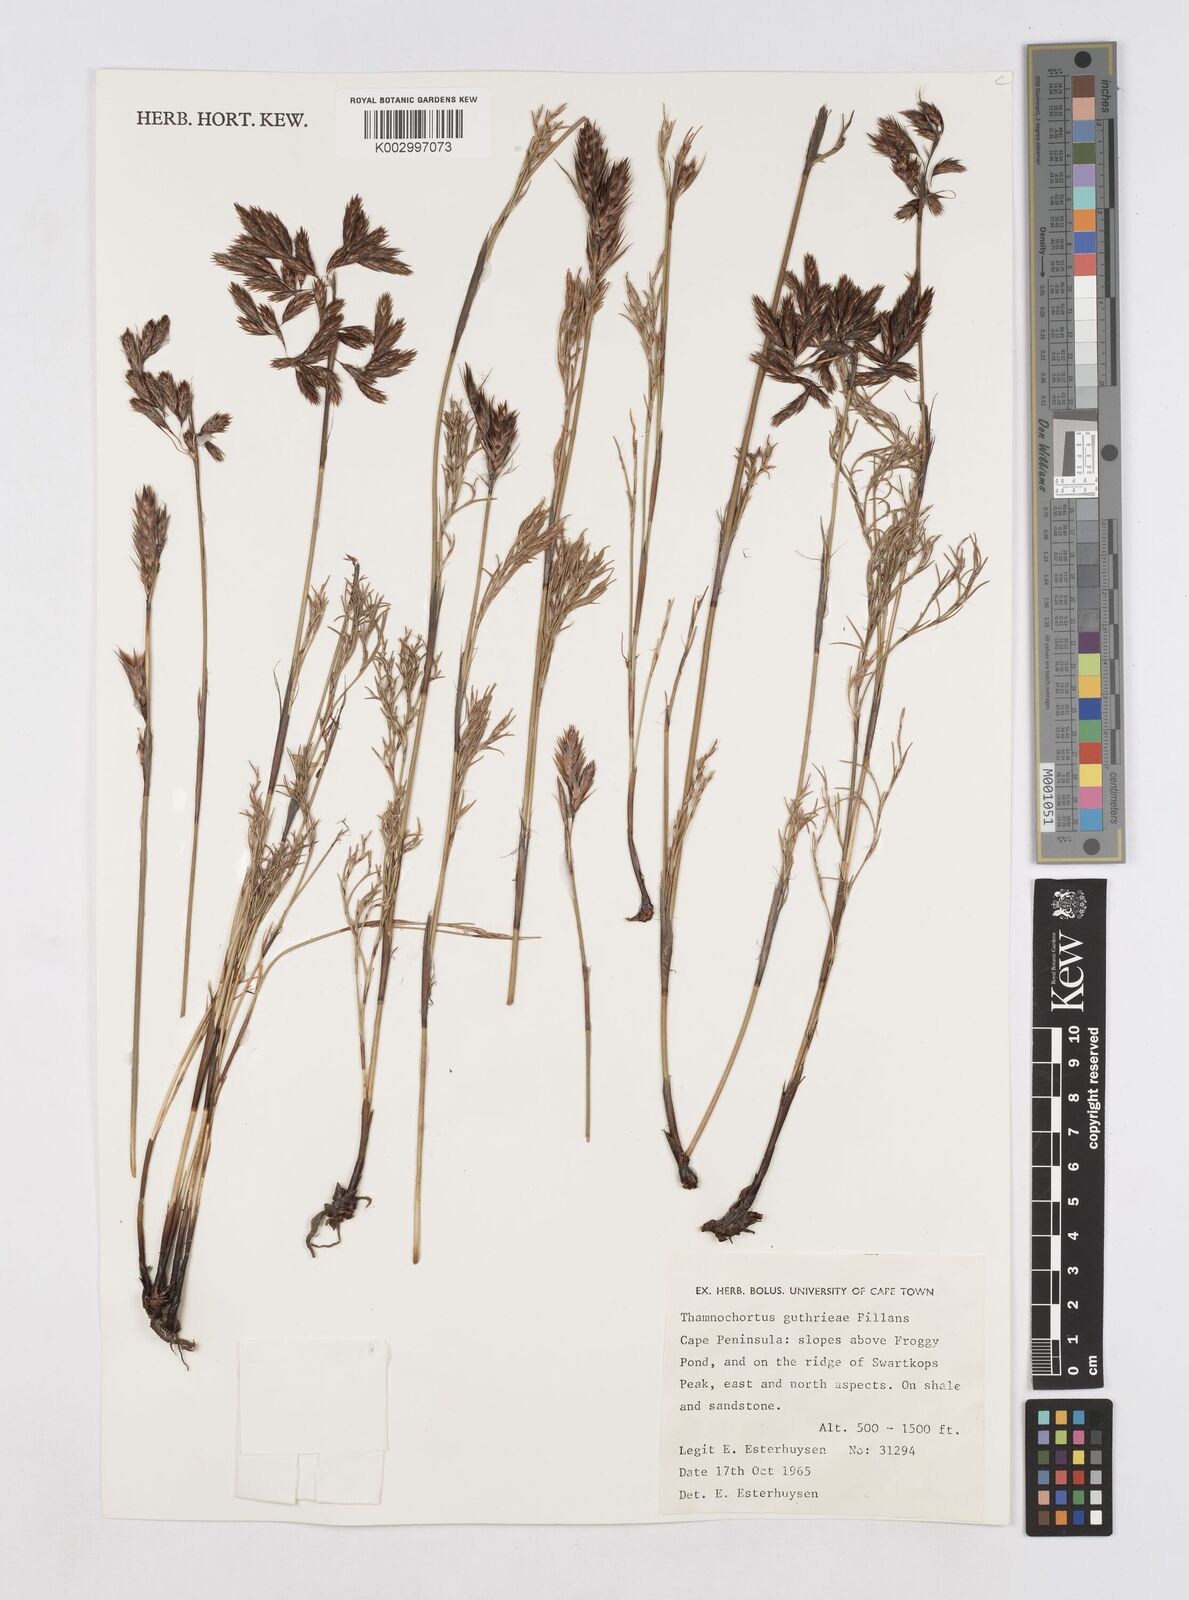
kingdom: Plantae
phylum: Tracheophyta
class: Liliopsida
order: Poales
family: Restionaceae
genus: Thamnochortus
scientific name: Thamnochortus guthrieae
